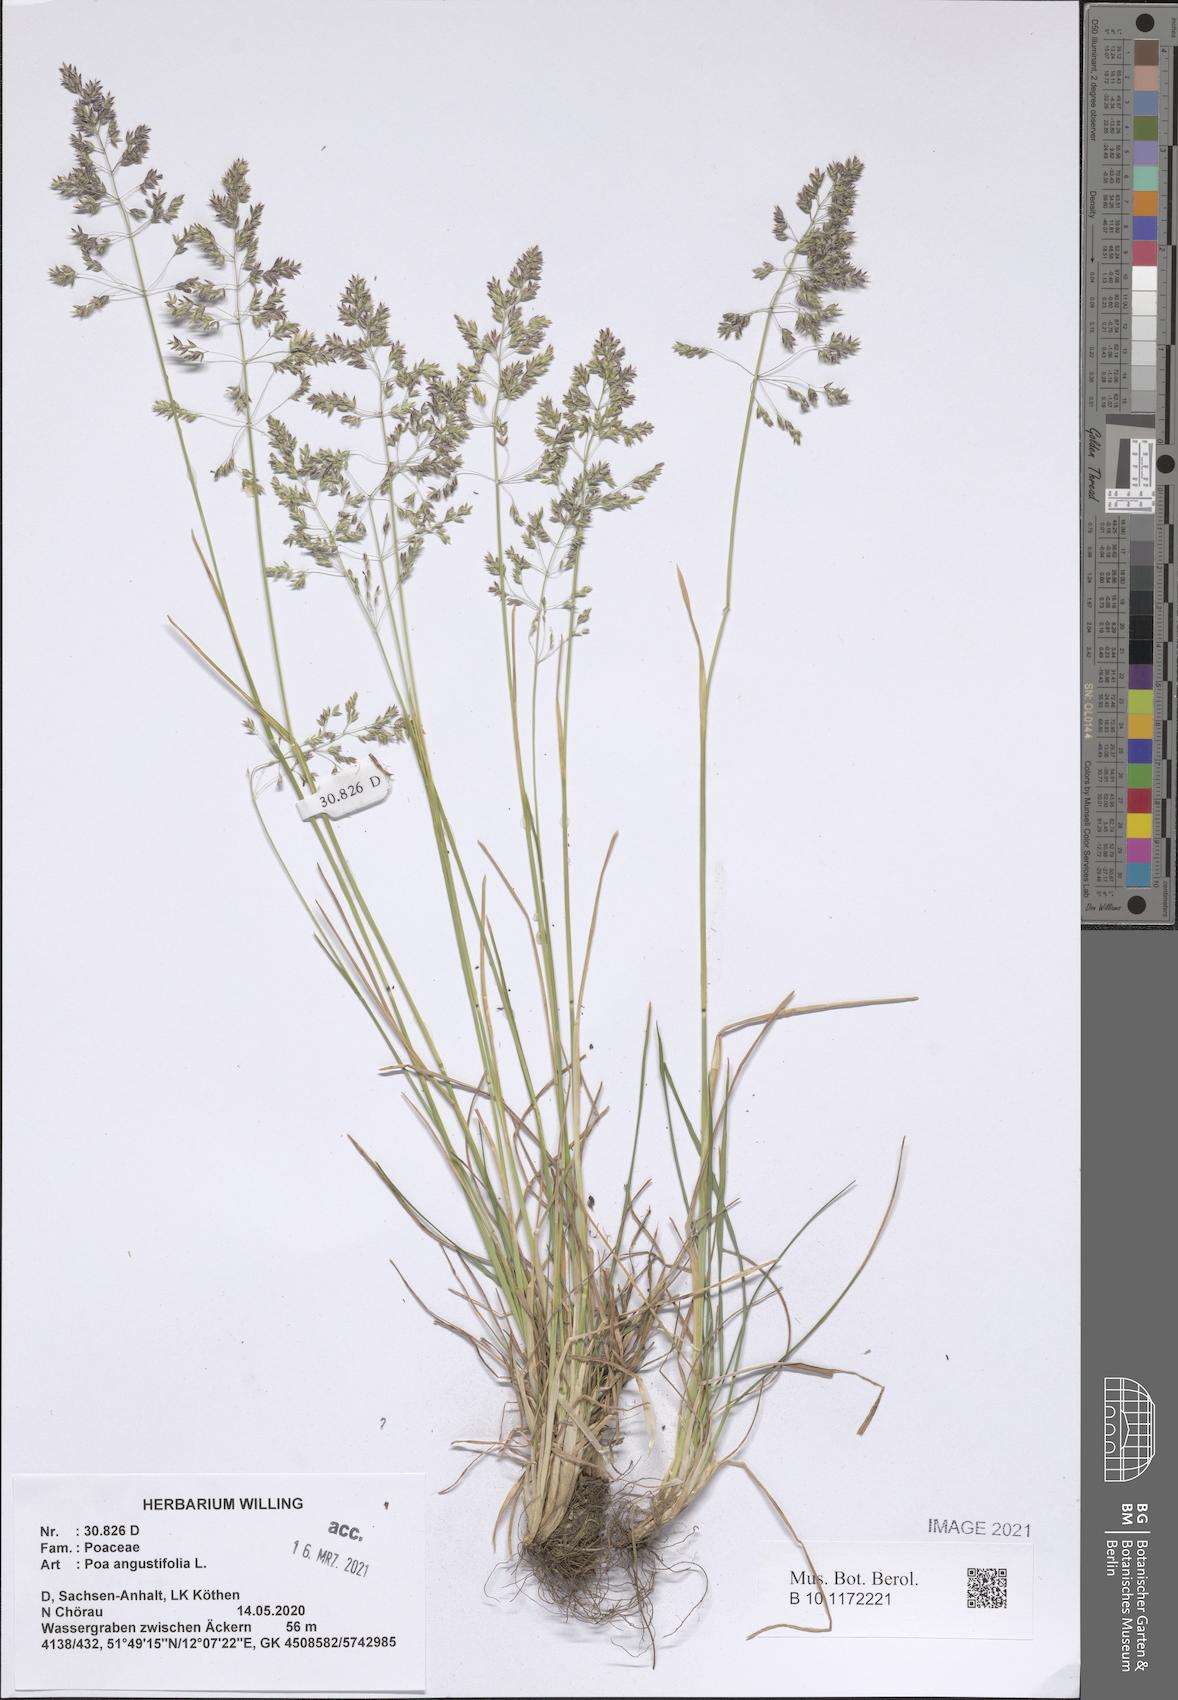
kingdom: Plantae
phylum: Tracheophyta
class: Liliopsida
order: Poales
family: Poaceae
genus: Poa
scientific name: Poa angustifolia
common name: Narrow-leaved meadow-grass
